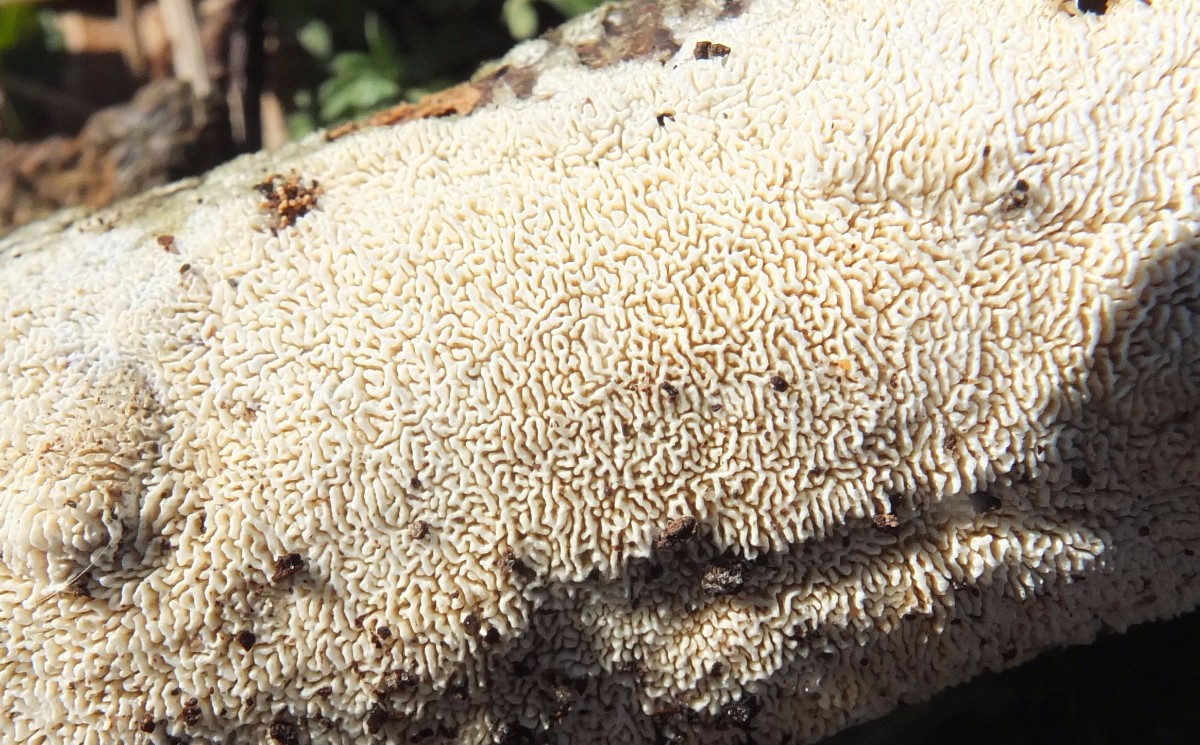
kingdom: Fungi
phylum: Basidiomycota
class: Agaricomycetes
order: Hymenochaetales
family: Schizoporaceae
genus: Xylodon
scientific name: Xylodon subtropicus
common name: labyrint-tandsvamp
